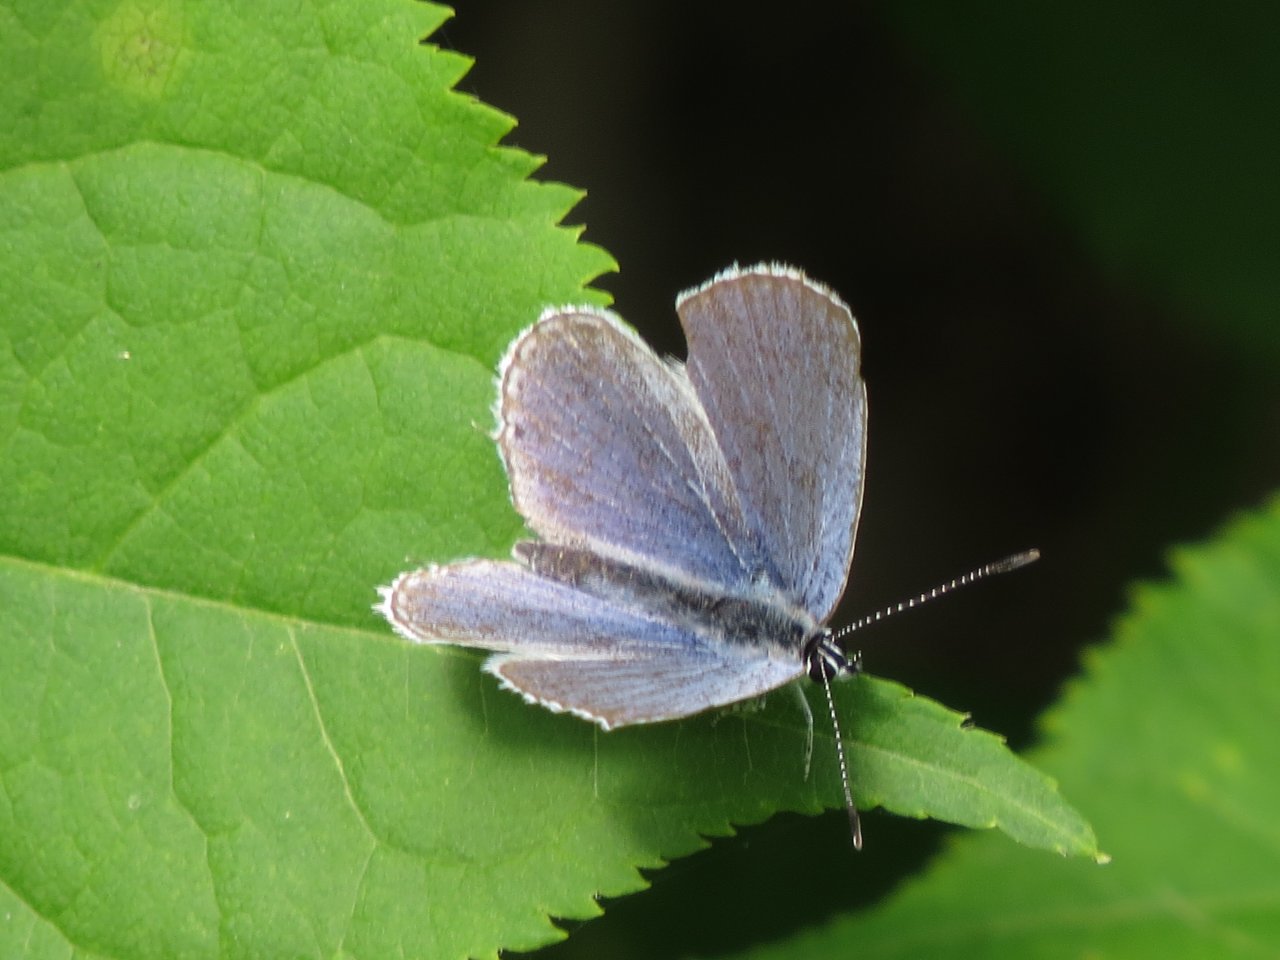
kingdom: Animalia
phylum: Arthropoda
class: Insecta
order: Lepidoptera
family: Lycaenidae
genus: Elkalyce
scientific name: Elkalyce amyntula
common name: Western Tailed-Blue
